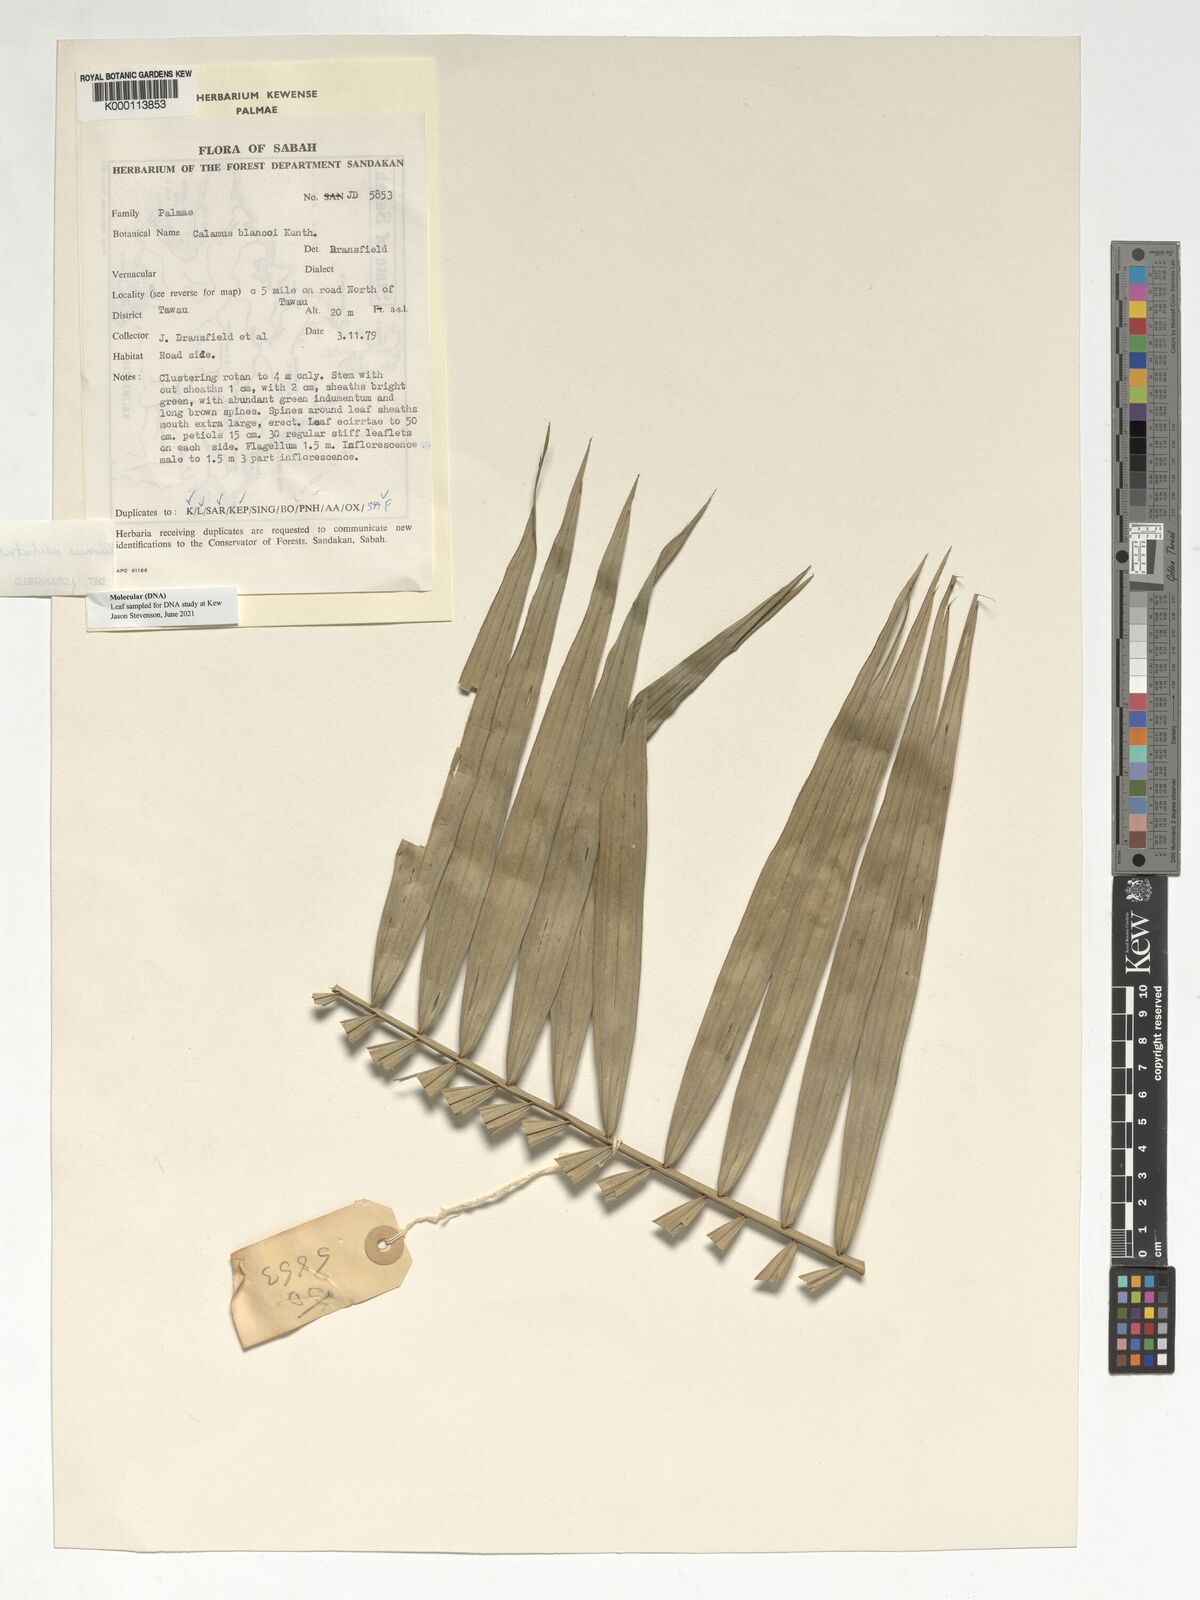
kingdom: Plantae
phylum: Tracheophyta
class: Liliopsida
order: Arecales
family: Arecaceae
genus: Calamus
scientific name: Calamus usitatus
